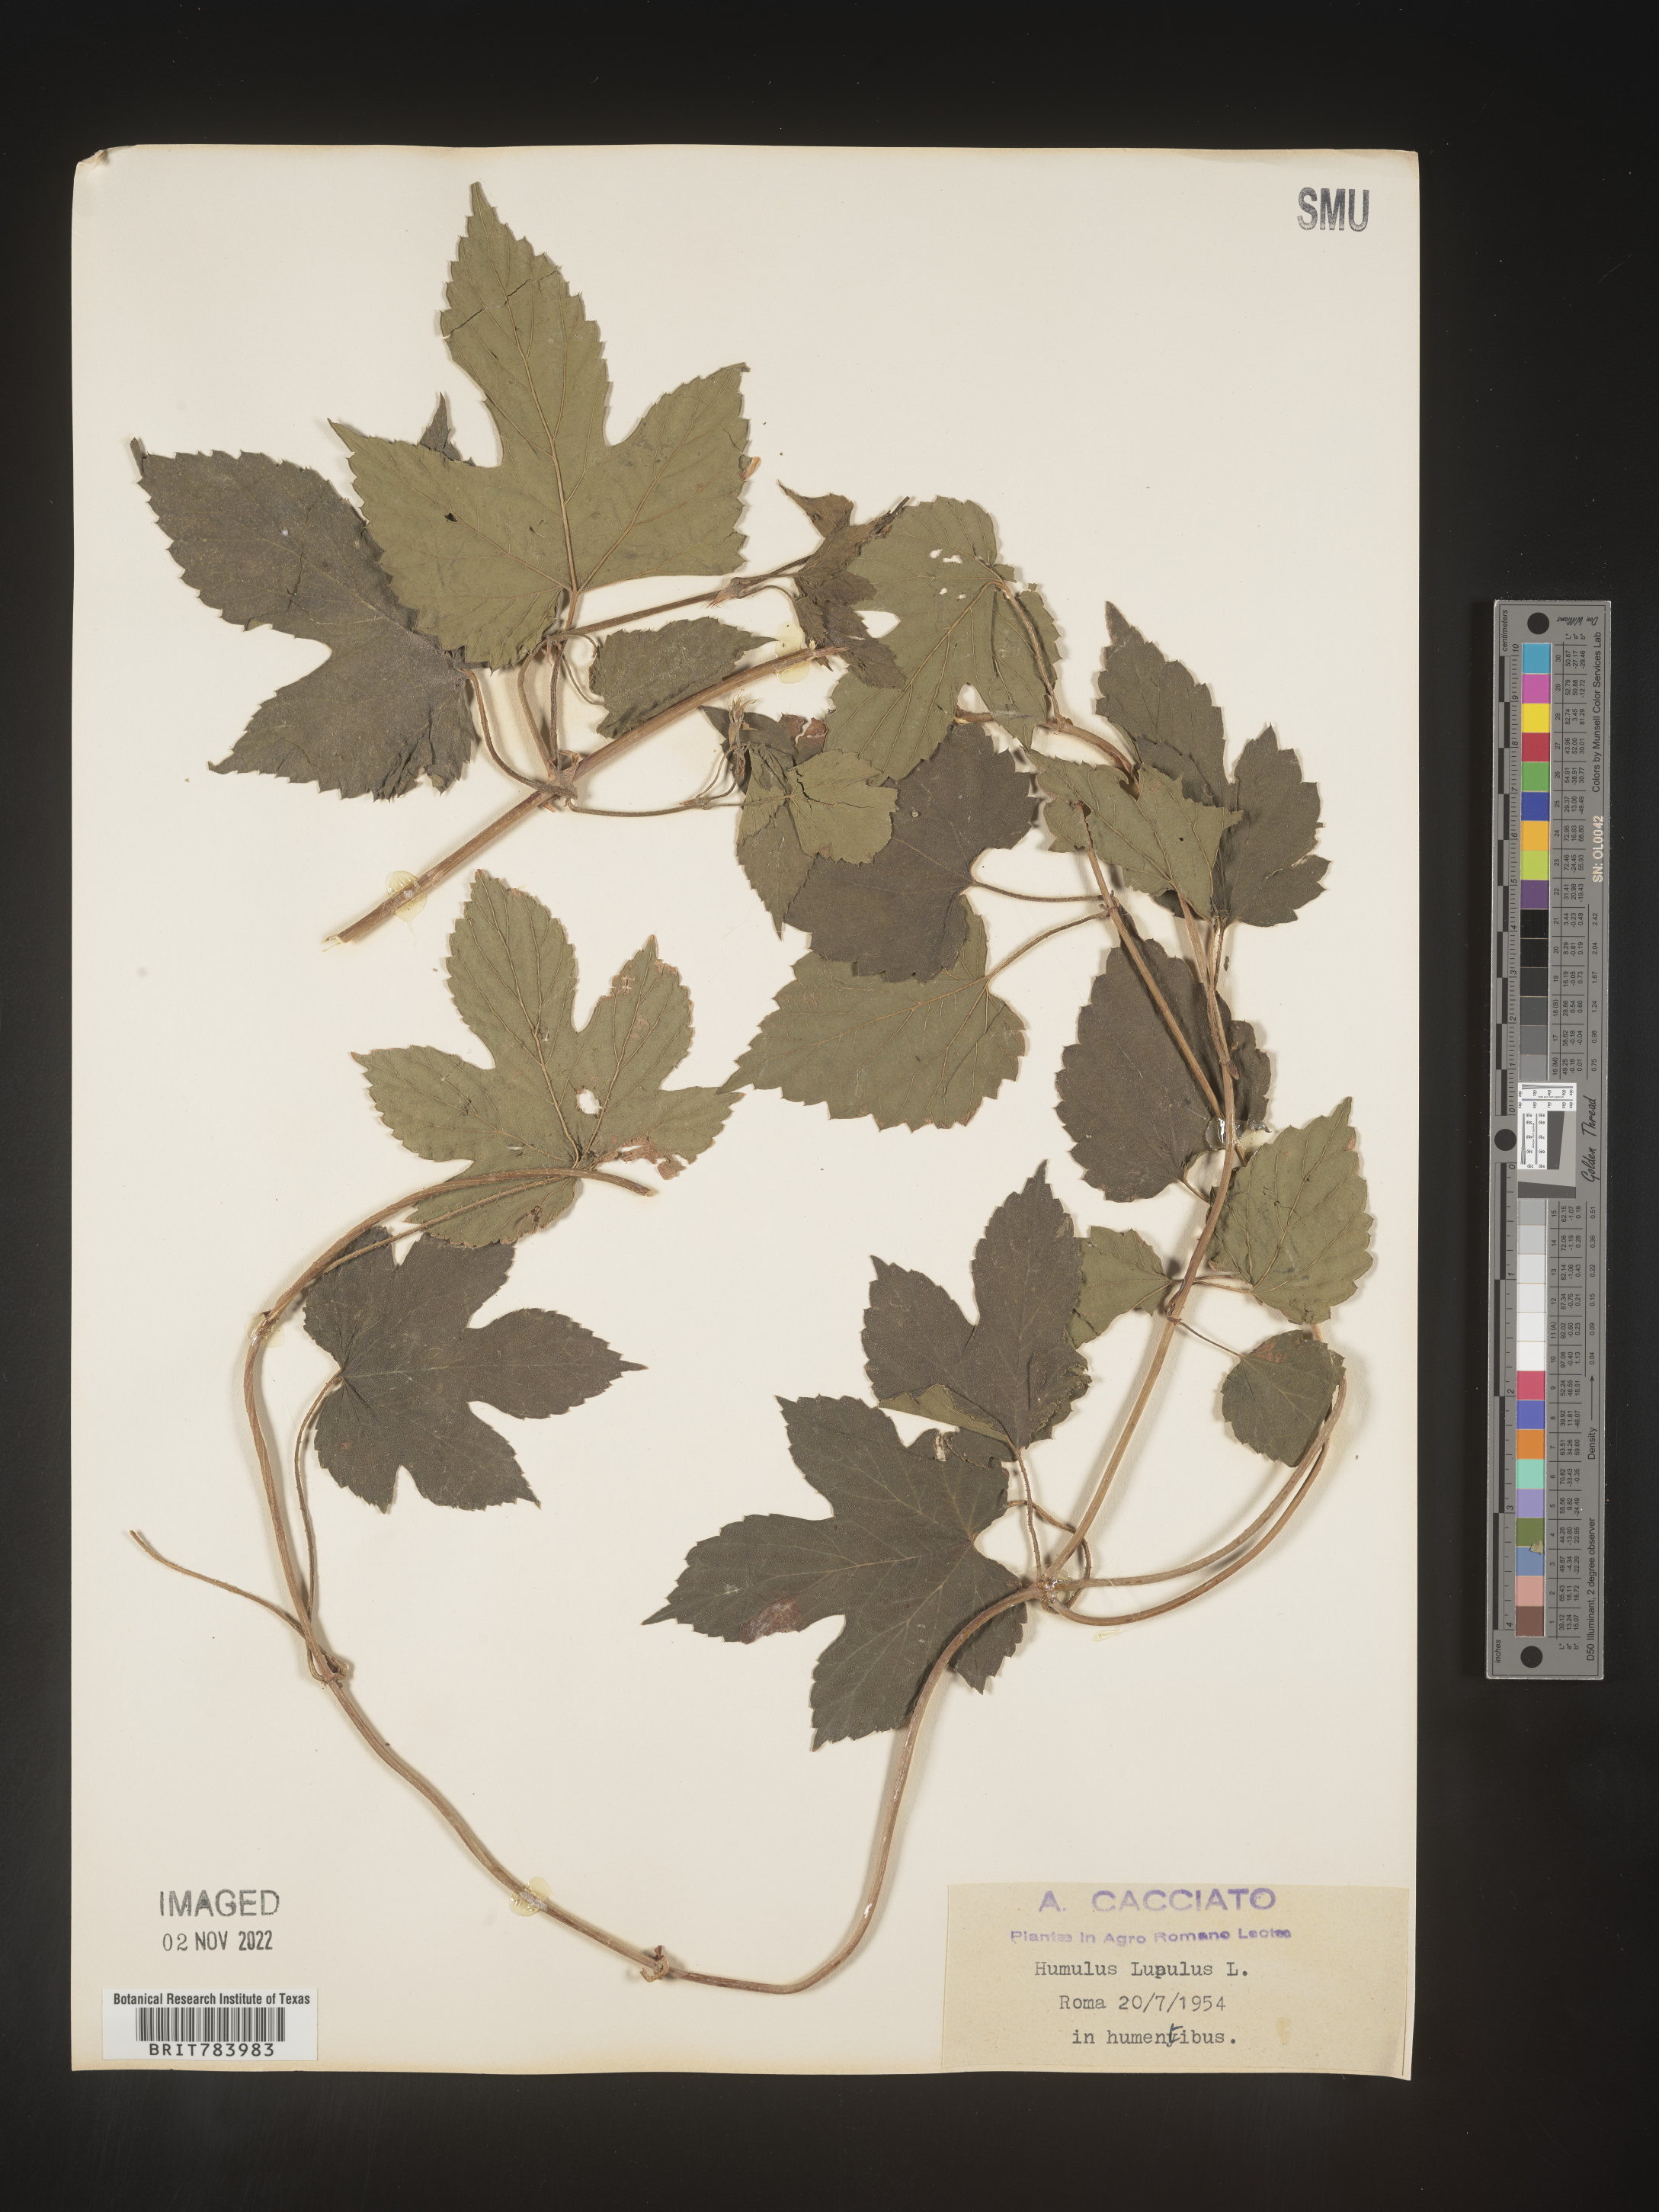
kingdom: Plantae
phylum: Tracheophyta
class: Magnoliopsida
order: Rosales
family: Cannabaceae
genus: Humulus
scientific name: Humulus
